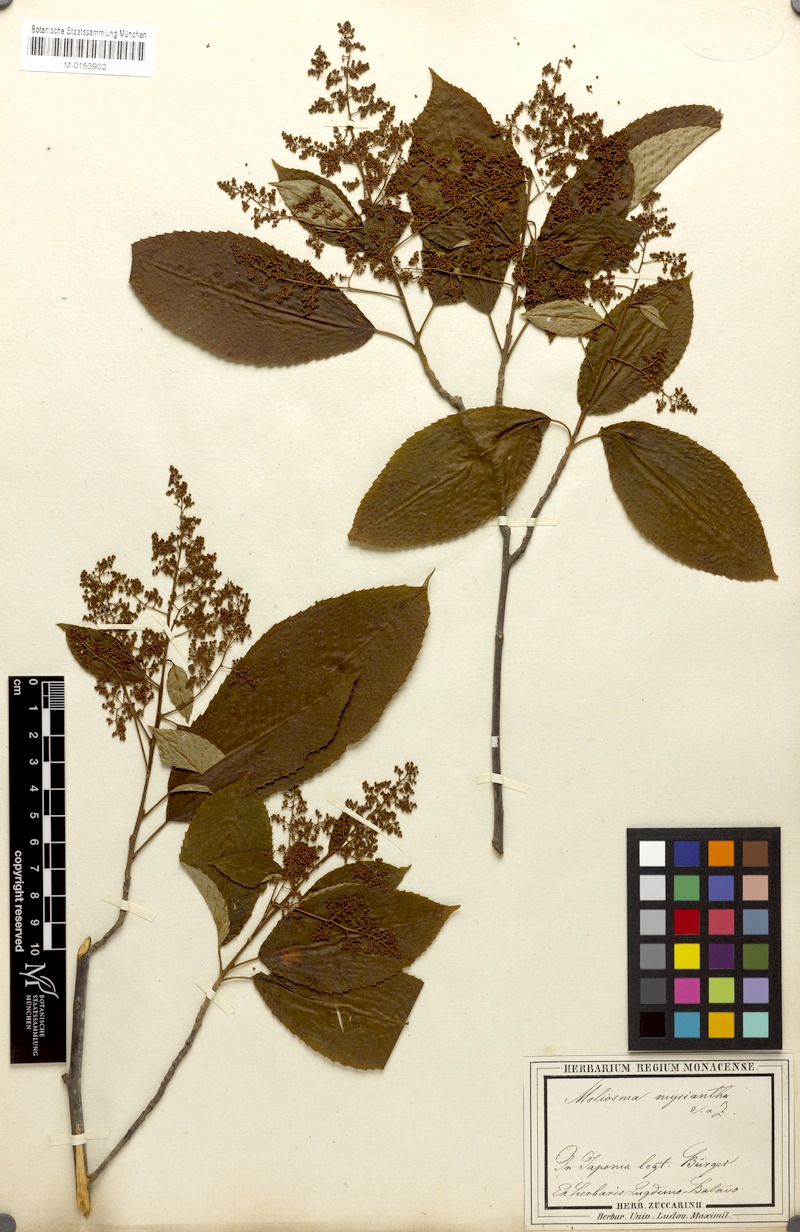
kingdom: Plantae
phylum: Tracheophyta
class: Magnoliopsida
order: Proteales
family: Sabiaceae
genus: Meliosma
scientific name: Meliosma myriantha
